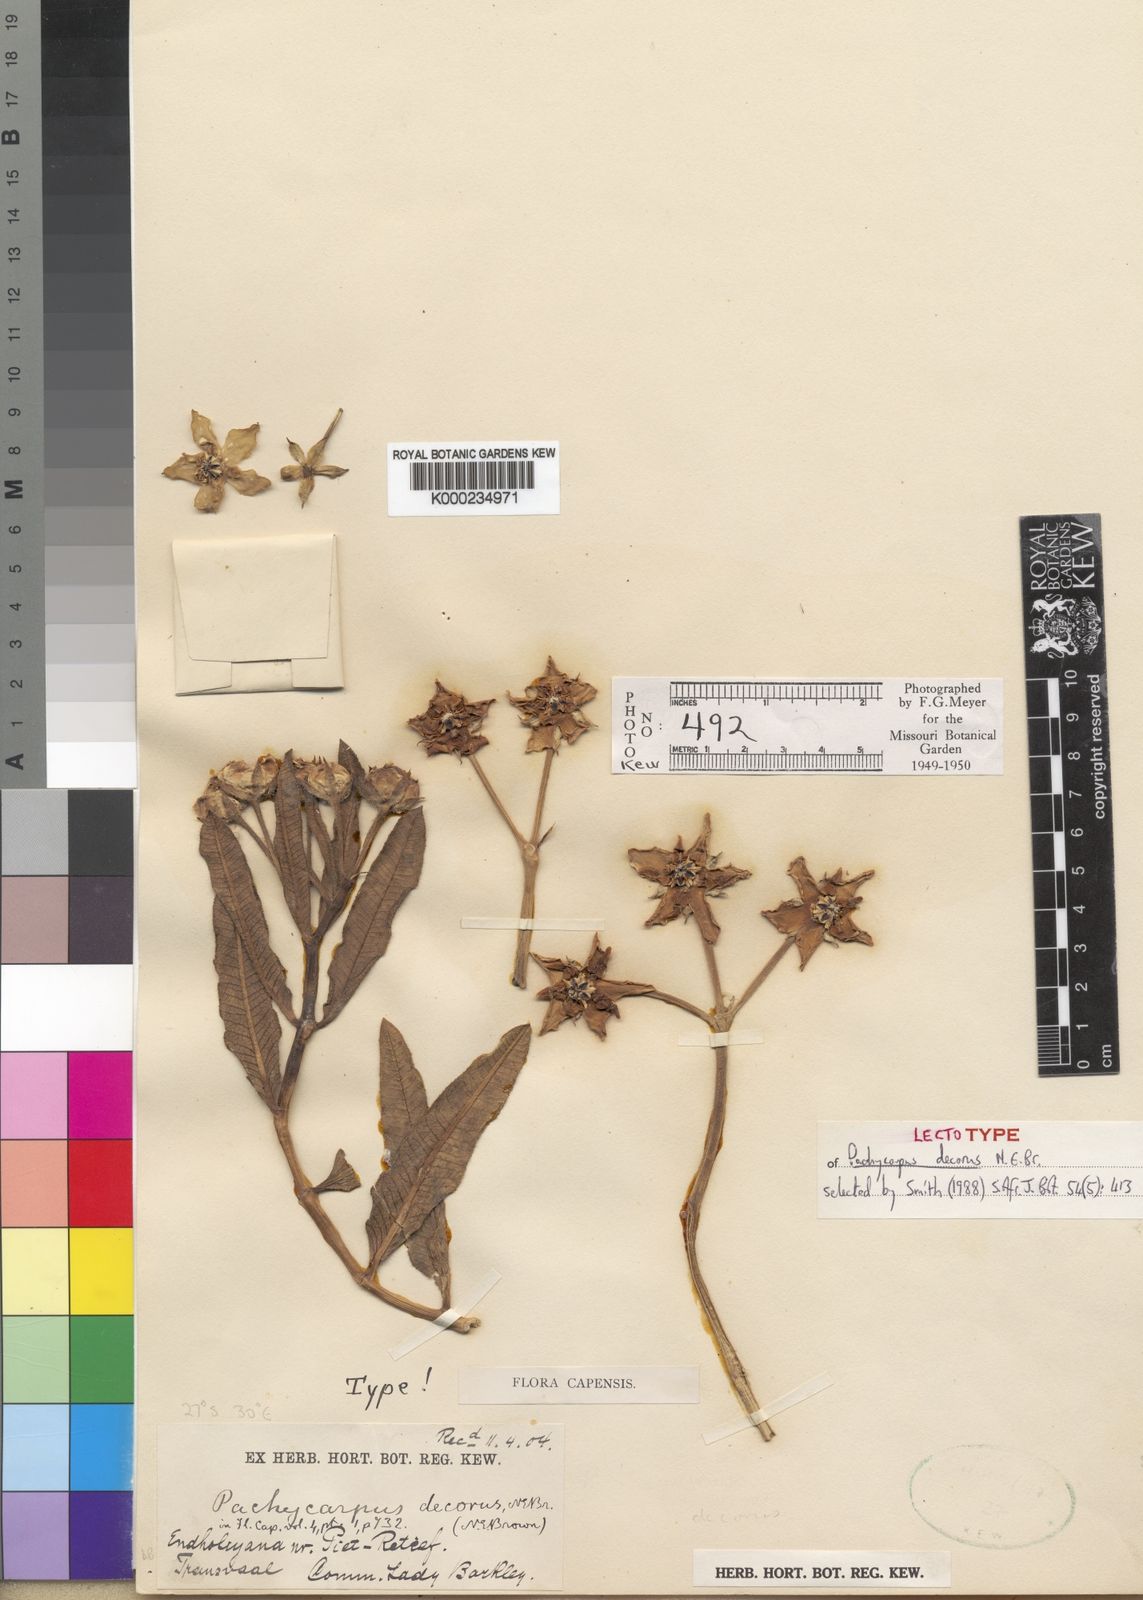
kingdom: Plantae
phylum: Tracheophyta
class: Magnoliopsida
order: Gentianales
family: Apocynaceae
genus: Pachycarpus
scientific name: Pachycarpus concolor
